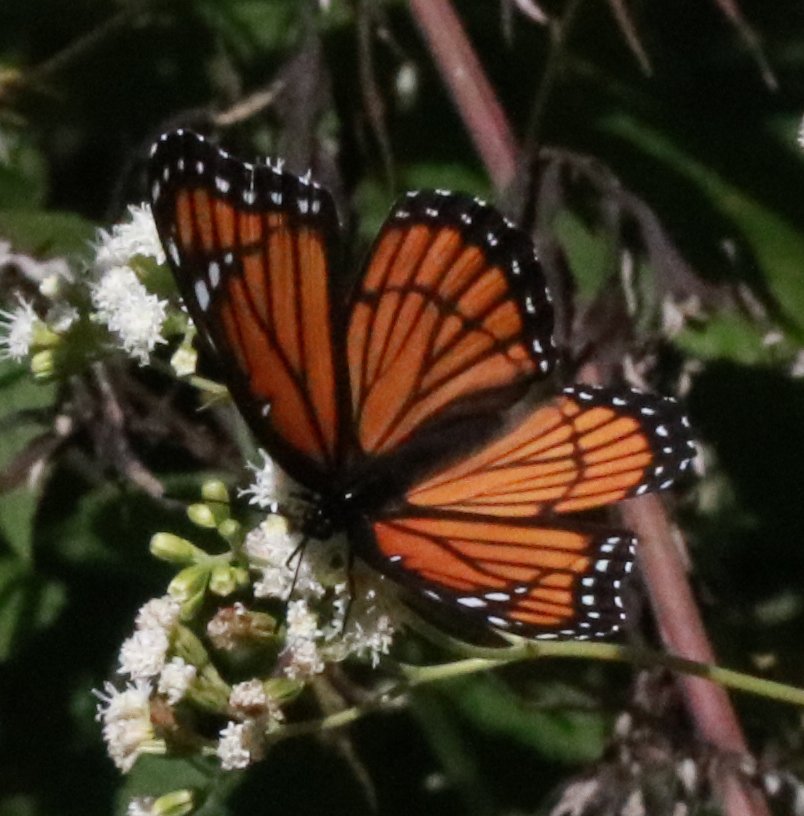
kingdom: Animalia
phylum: Arthropoda
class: Insecta
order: Lepidoptera
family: Nymphalidae
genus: Limenitis
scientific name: Limenitis archippus
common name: Viceroy
